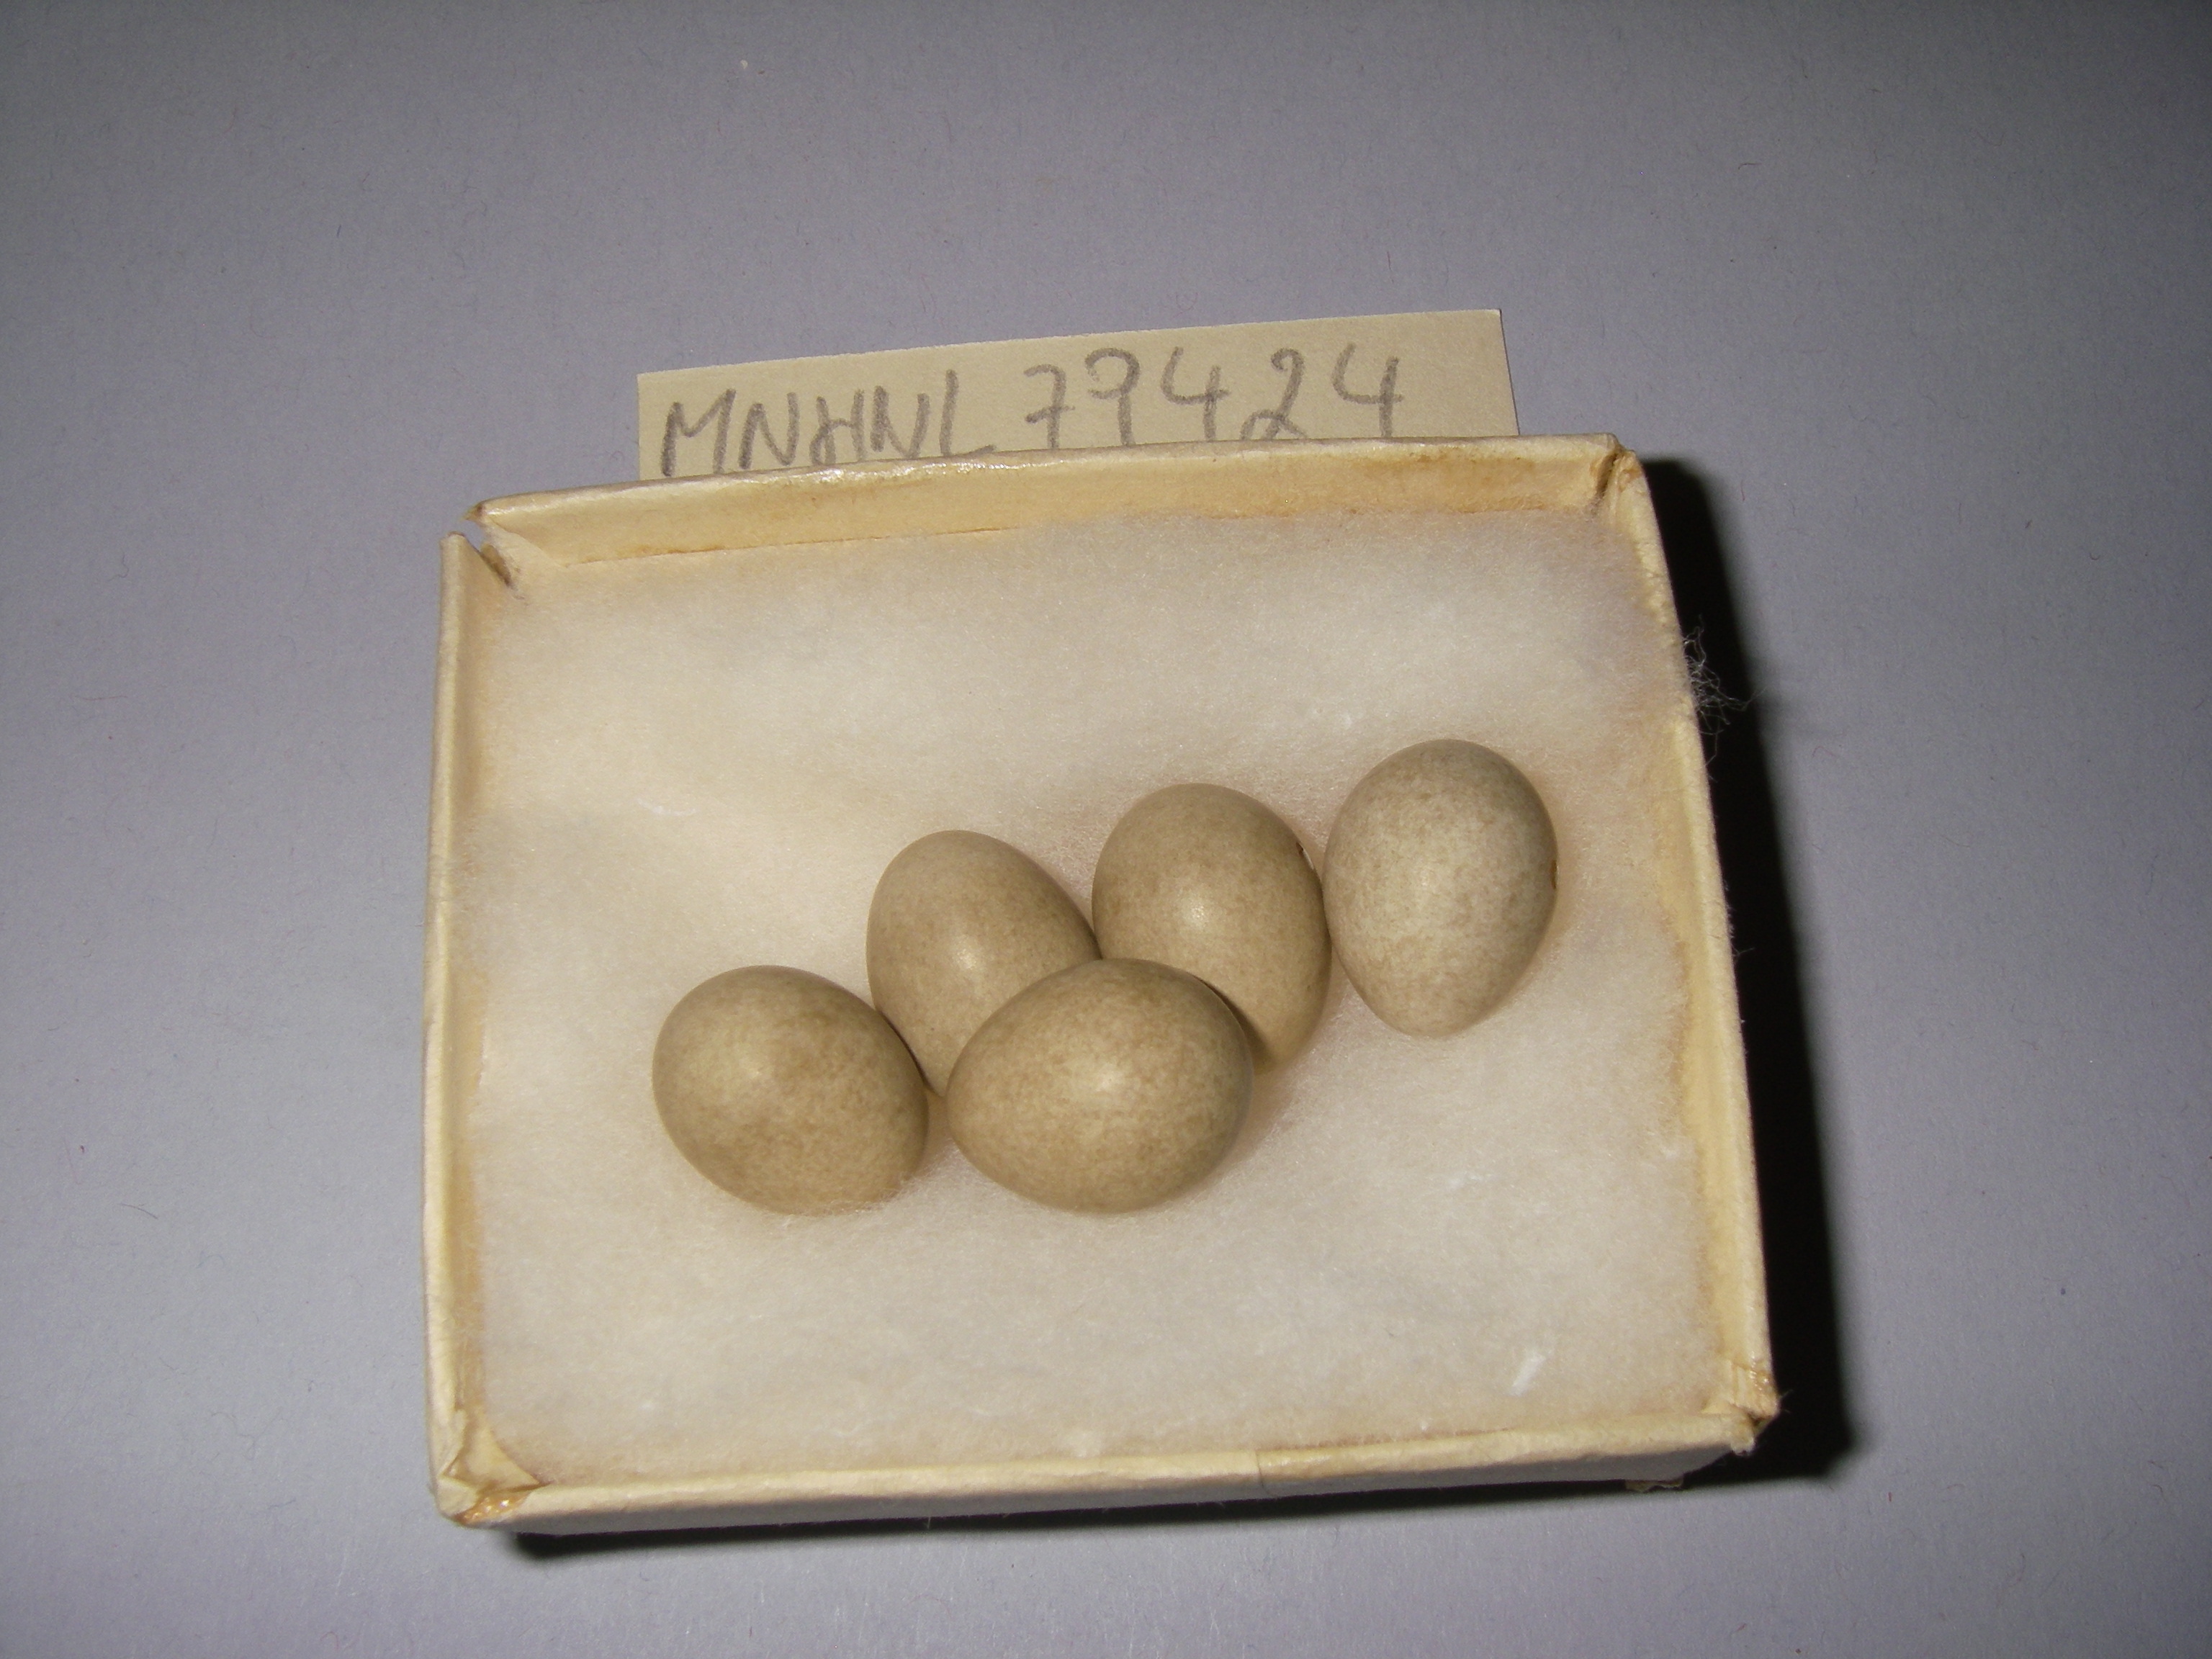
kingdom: Animalia
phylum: Chordata
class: Aves
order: Passeriformes
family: Acrocephalidae
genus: Acrocephalus
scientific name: Acrocephalus schoenobaenus
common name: Sedge warbler
